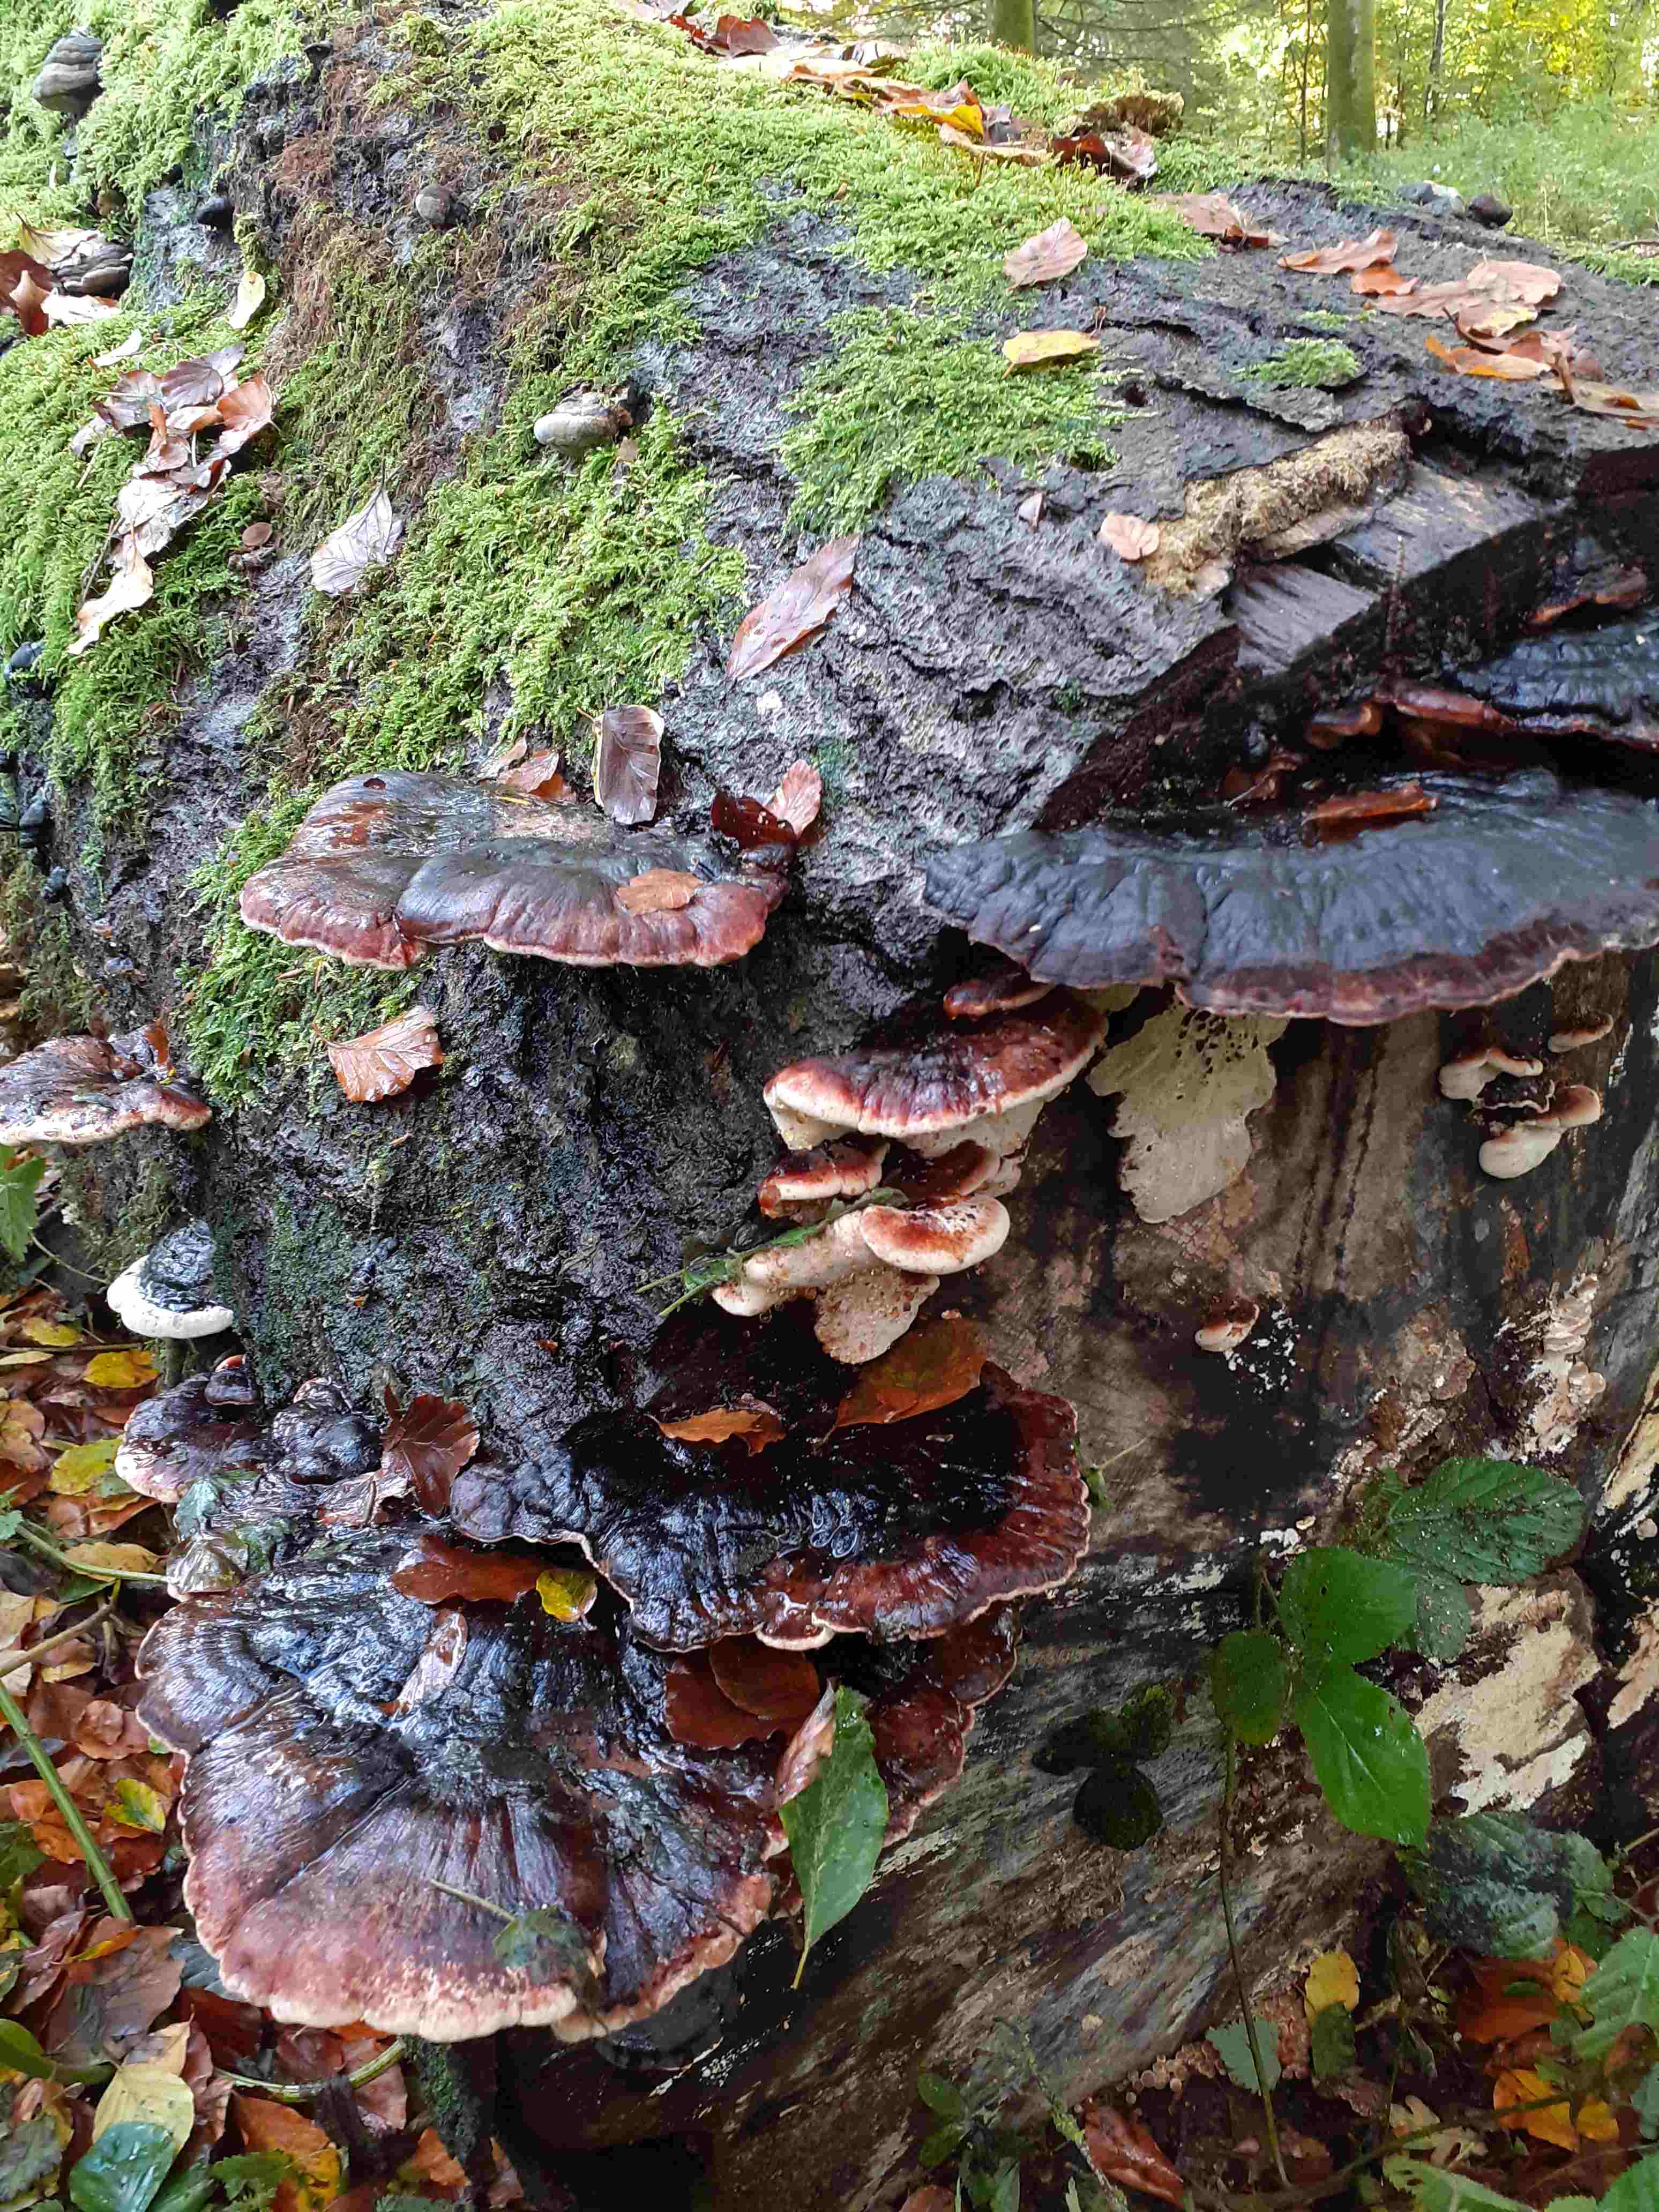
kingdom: Fungi
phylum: Basidiomycota
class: Agaricomycetes
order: Polyporales
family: Ischnodermataceae
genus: Ischnoderma
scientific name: Ischnoderma resinosum
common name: løv-tjæreporesvamp
